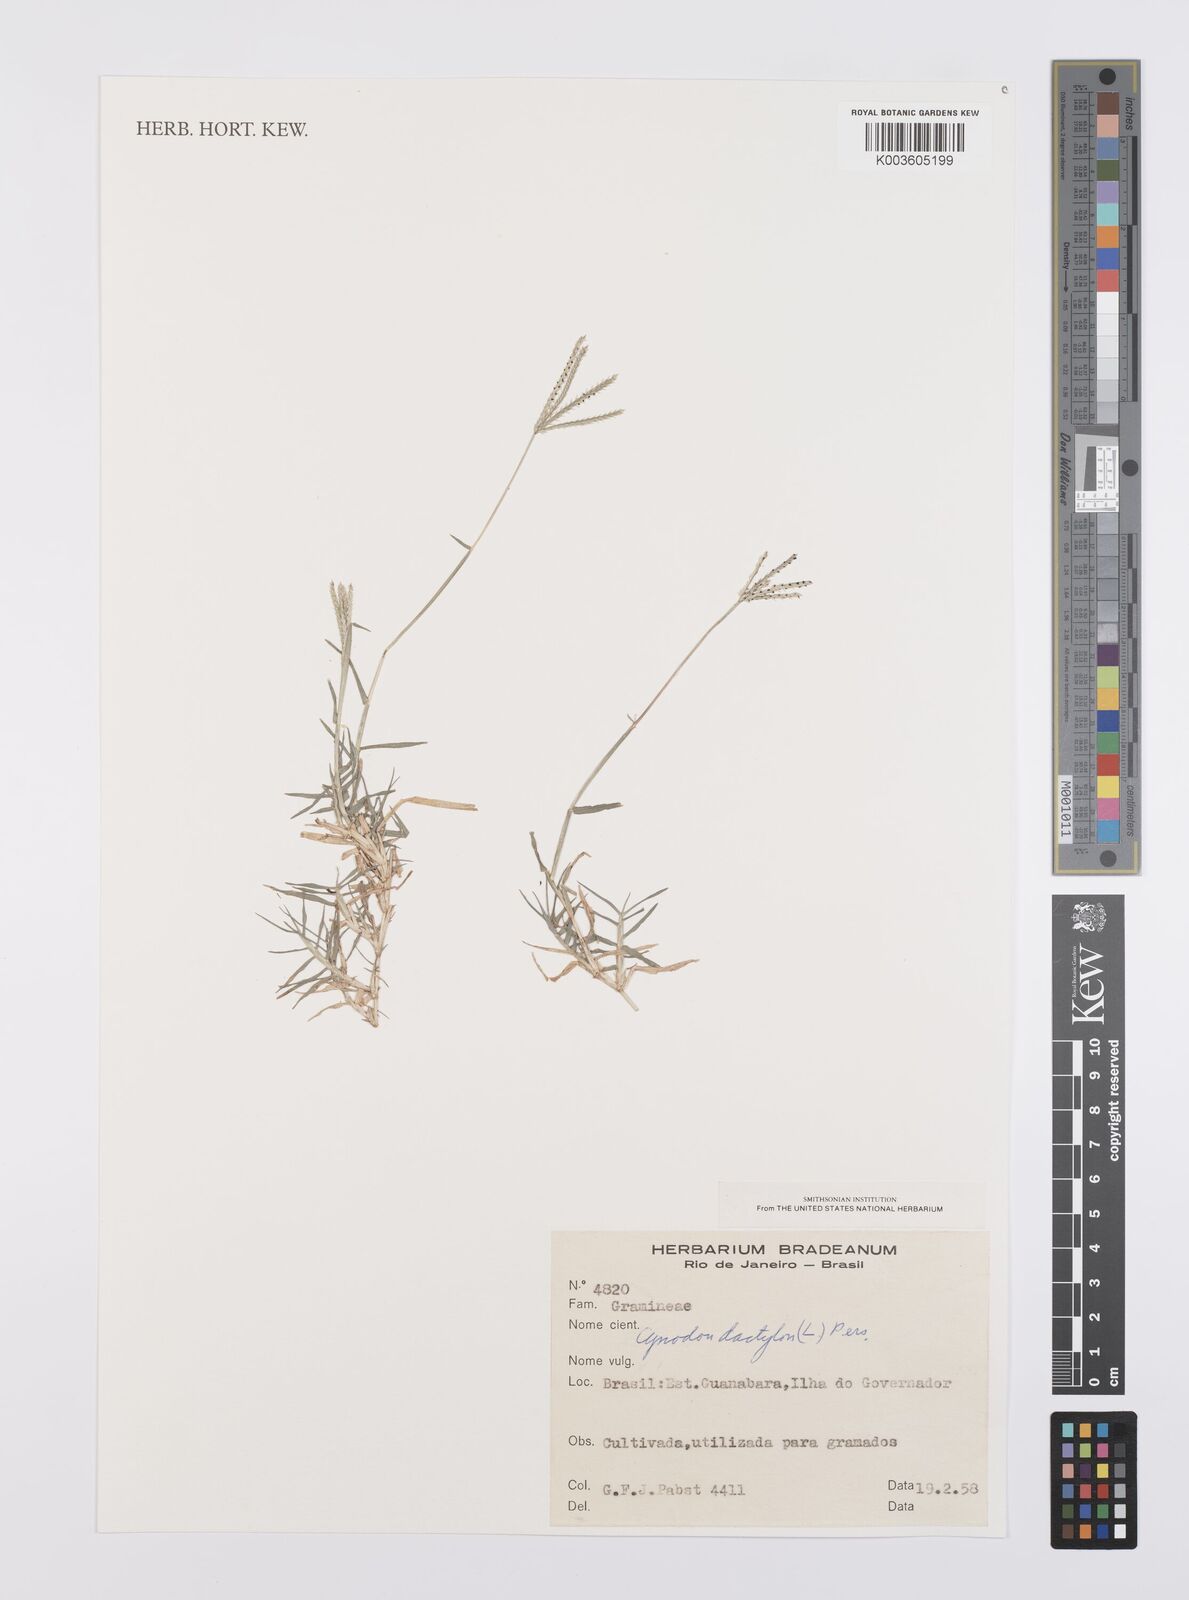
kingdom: Plantae
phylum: Tracheophyta
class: Liliopsida
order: Poales
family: Poaceae
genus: Cynodon
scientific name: Cynodon dactylon
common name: Bermuda grass
